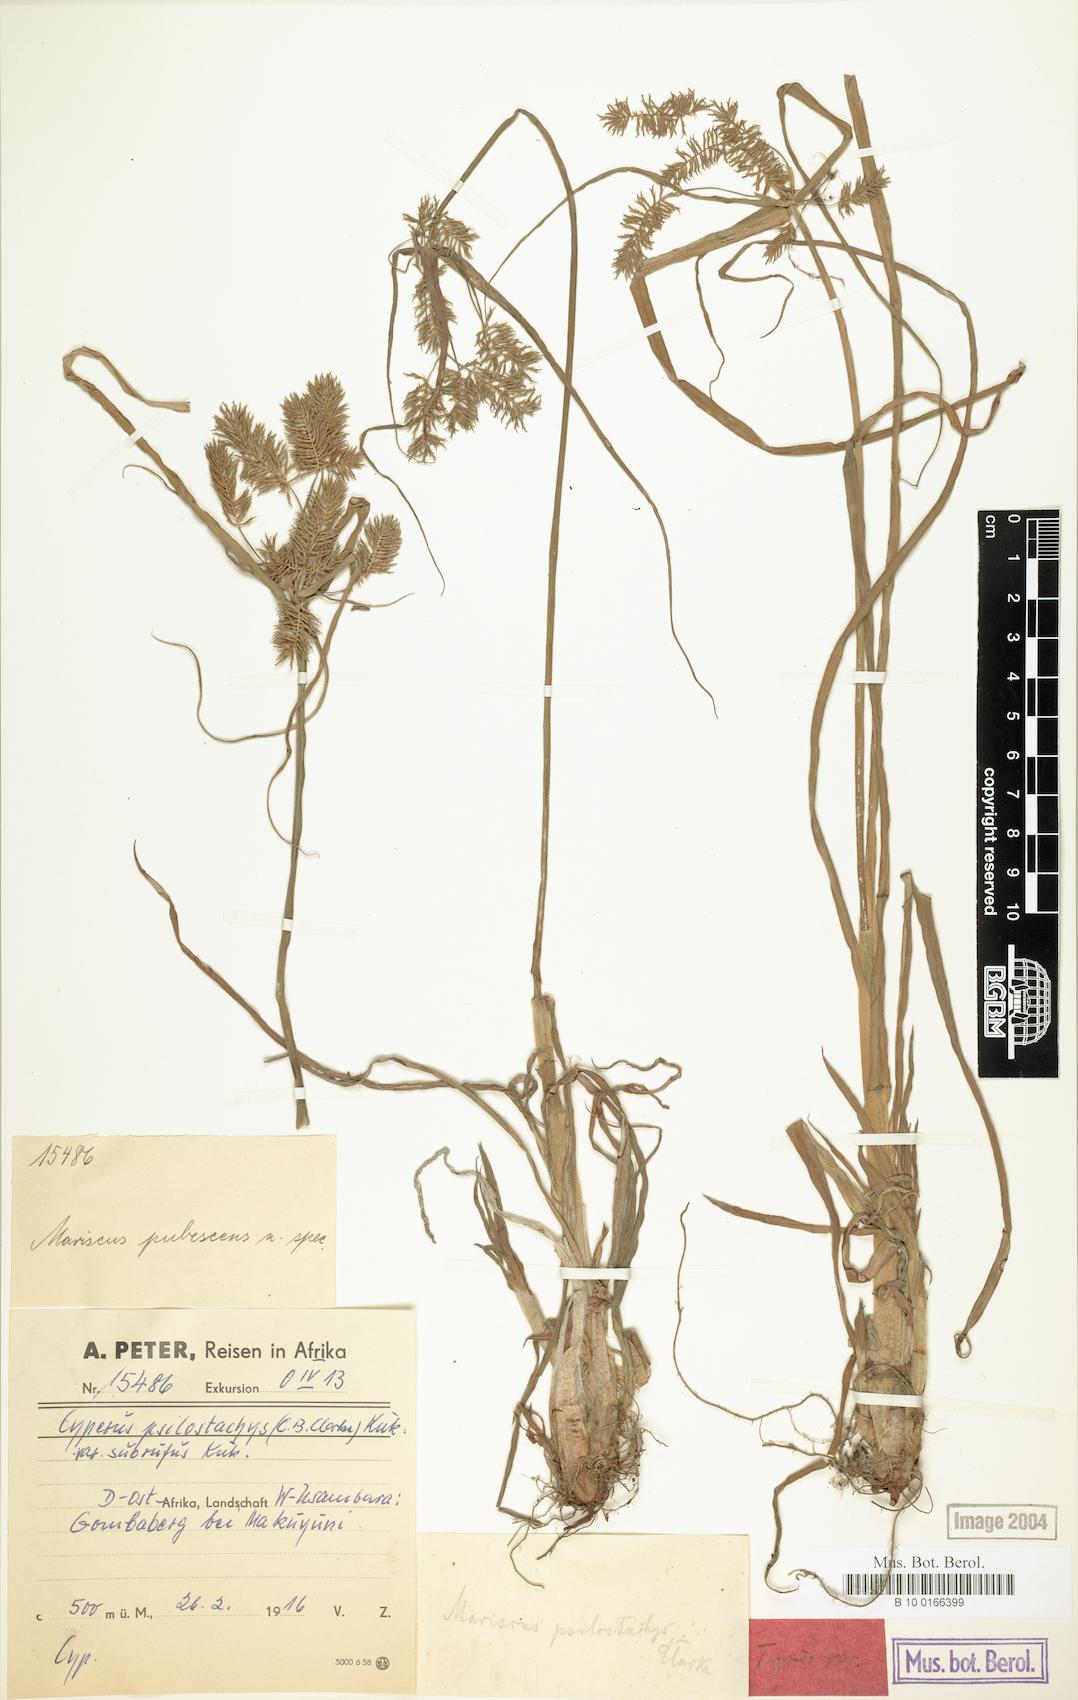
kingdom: Plantae
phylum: Tracheophyta
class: Liliopsida
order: Poales
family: Cyperaceae
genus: Cyperus
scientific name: Cyperus trigonellus
